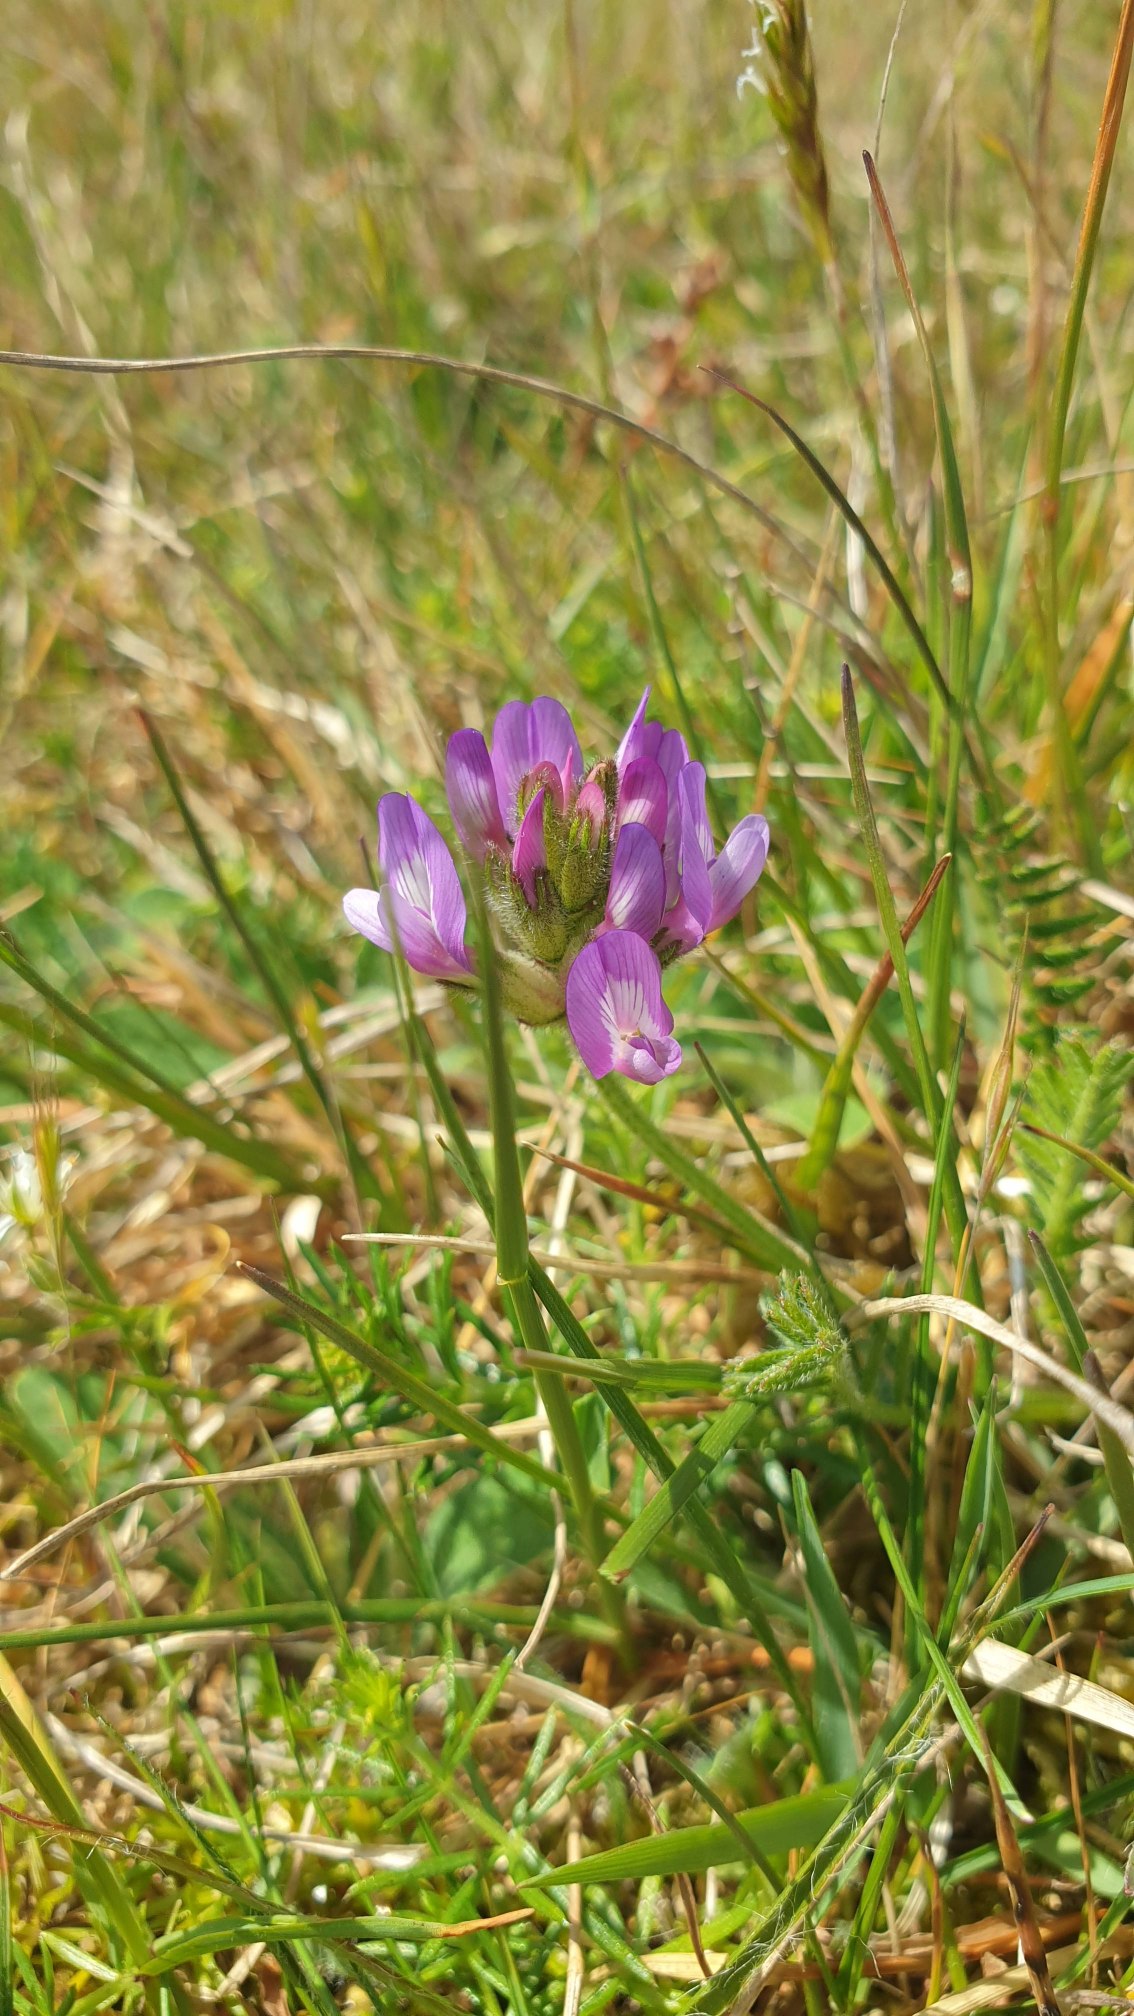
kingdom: Plantae
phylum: Tracheophyta
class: Magnoliopsida
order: Fabales
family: Fabaceae
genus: Astragalus
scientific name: Astragalus danicus
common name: Dansk astragel
